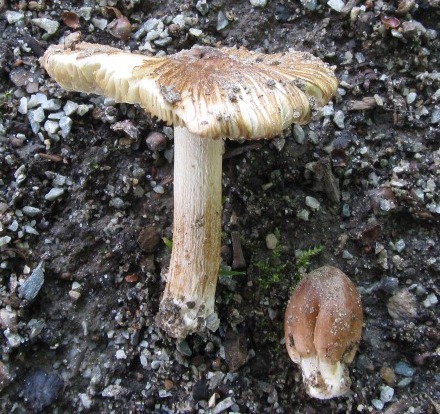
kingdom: Fungi
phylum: Basidiomycota
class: Agaricomycetes
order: Agaricales
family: Inocybaceae
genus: Inosperma
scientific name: Inosperma
